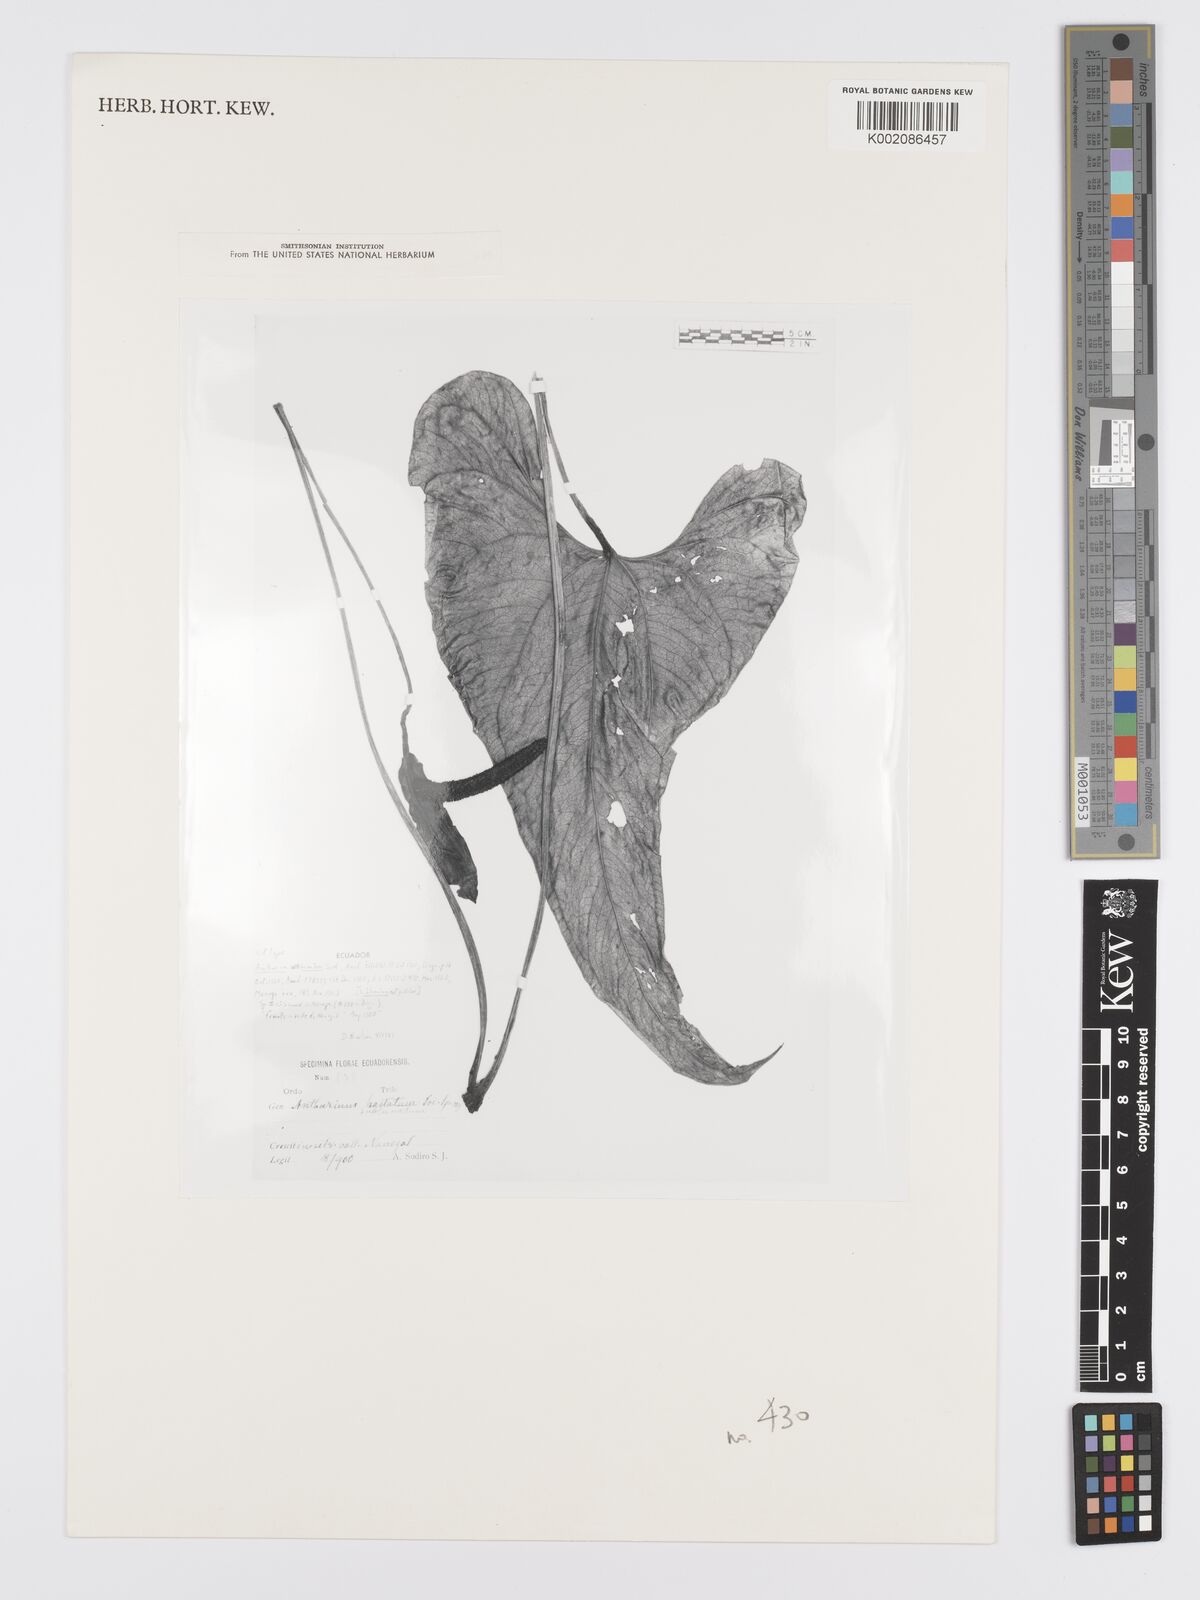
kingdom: Plantae
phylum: Tracheophyta
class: Liliopsida
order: Alismatales
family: Araceae
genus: Anthurium
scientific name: Anthurium rigidifolium
